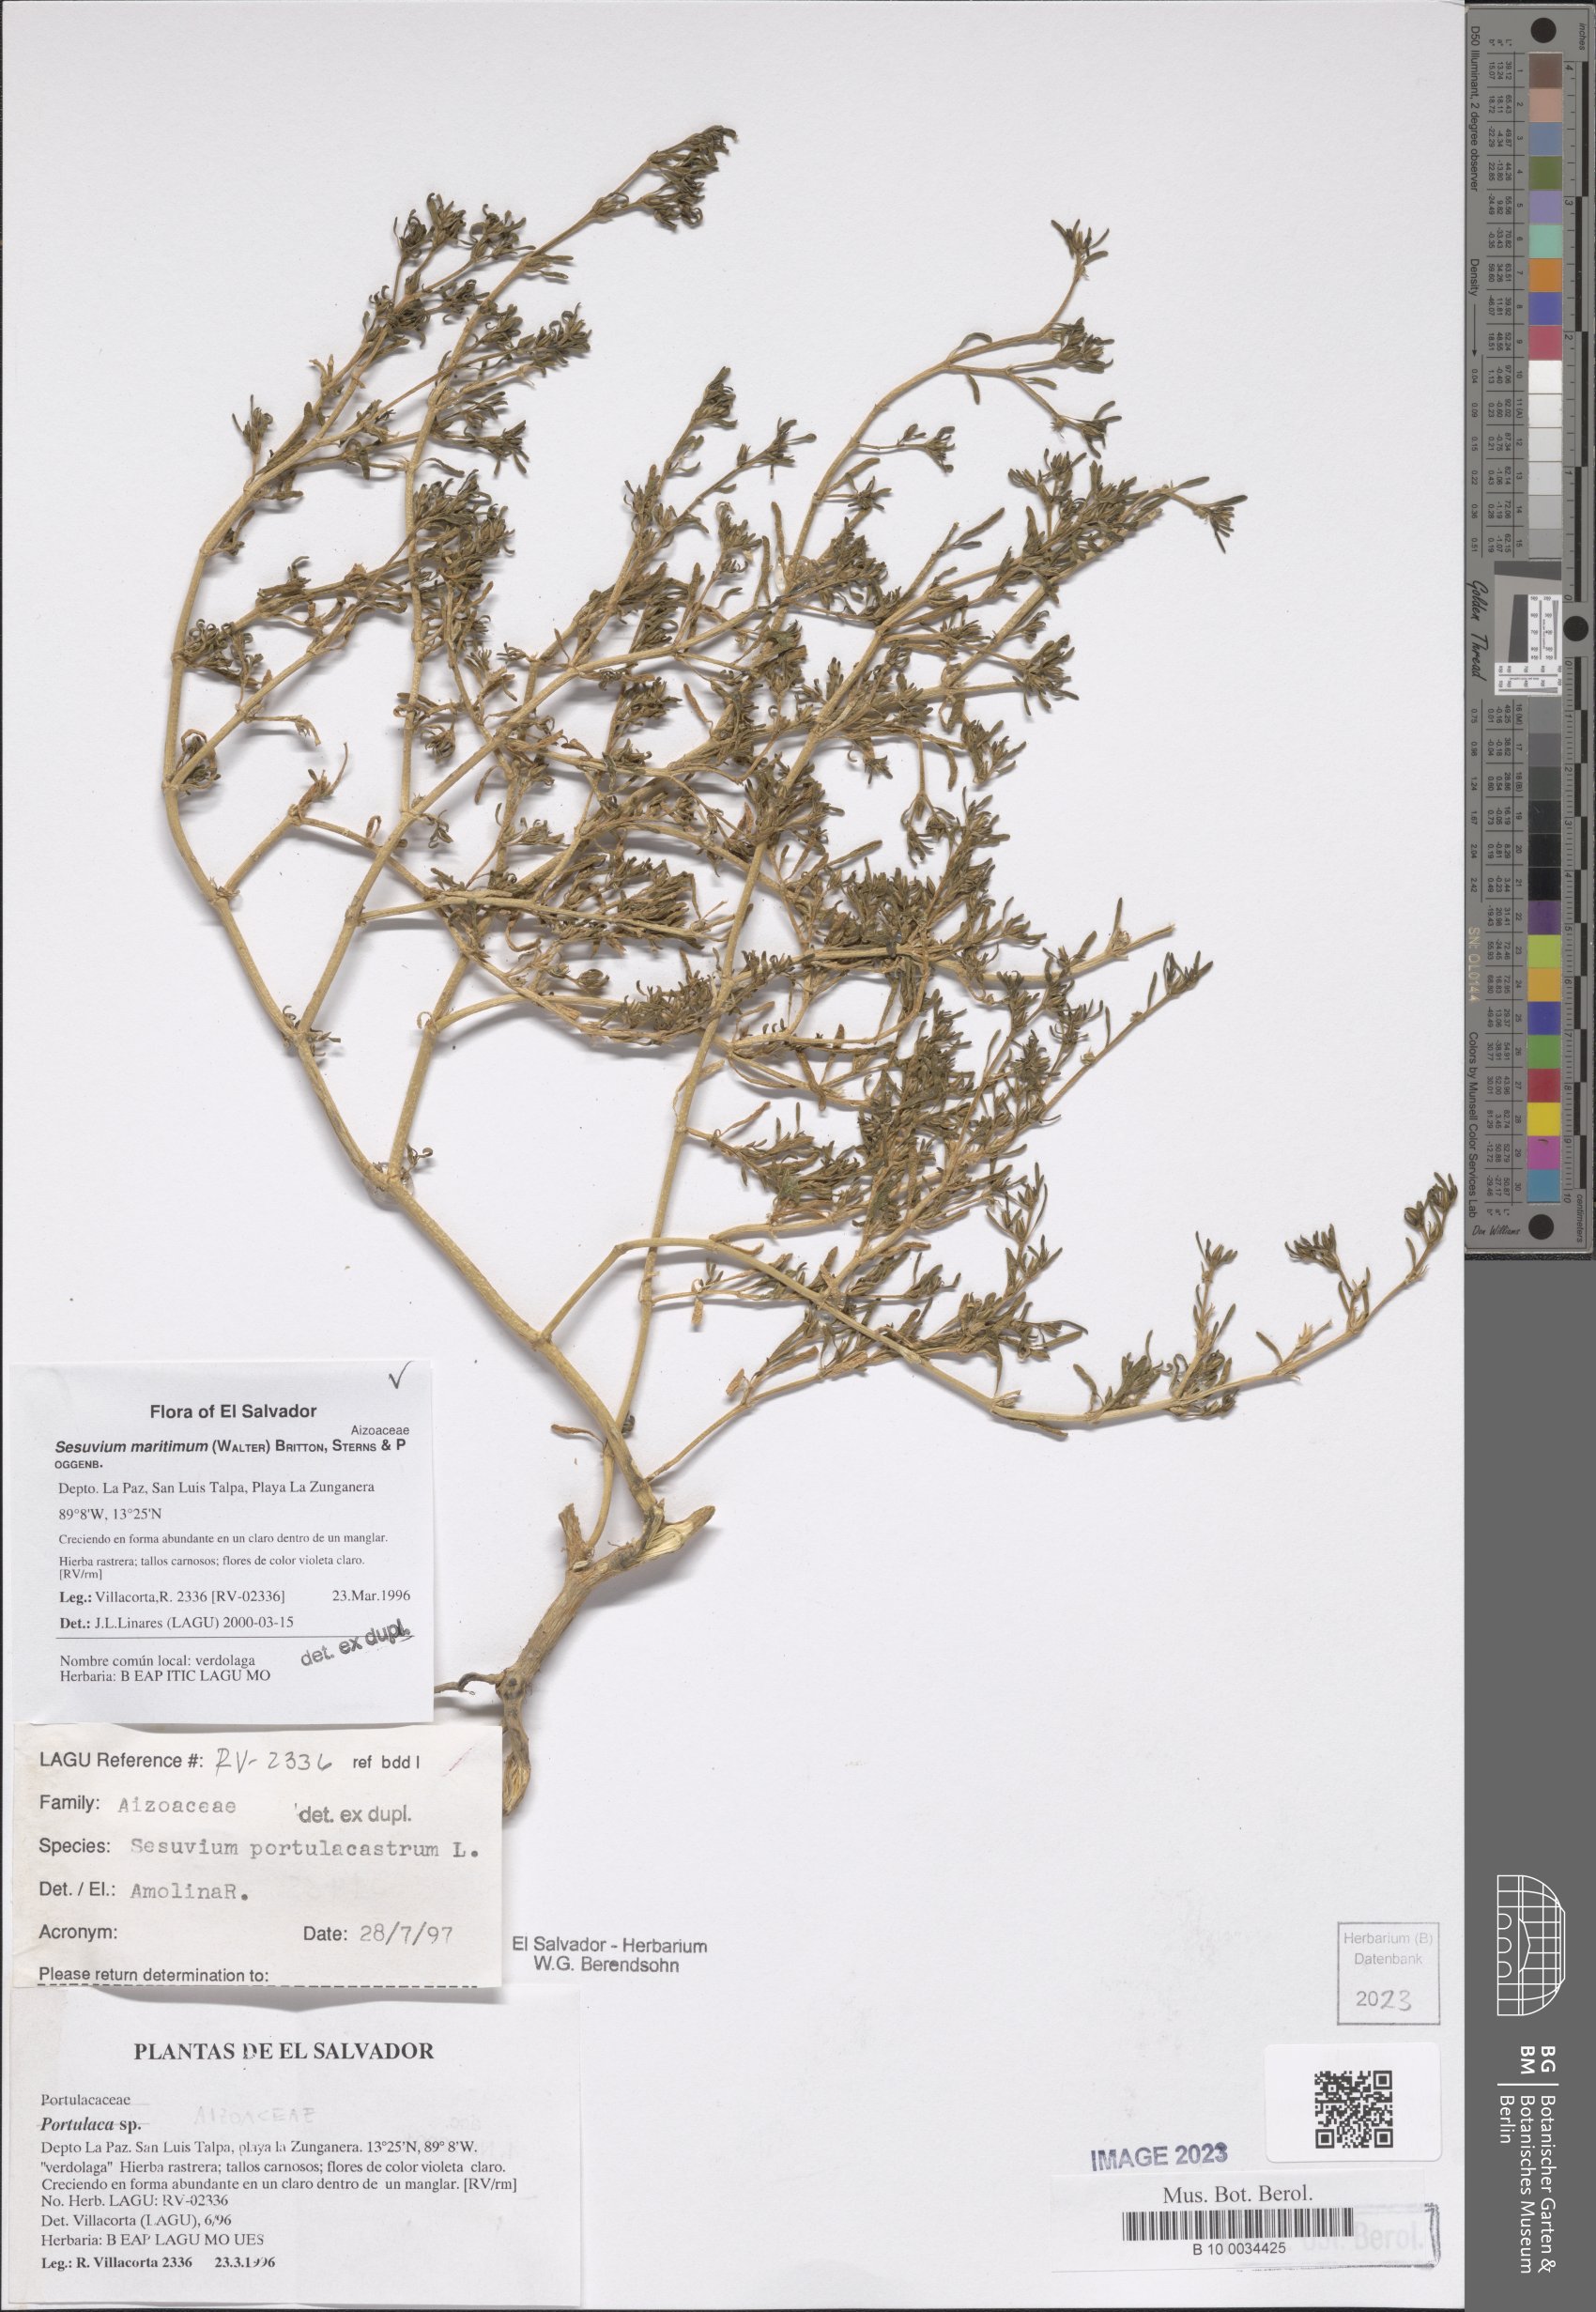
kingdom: Plantae
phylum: Tracheophyta
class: Magnoliopsida
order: Caryophyllales
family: Aizoaceae
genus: Sesuvium
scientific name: Sesuvium maritimum
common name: Slender sea-purslane
